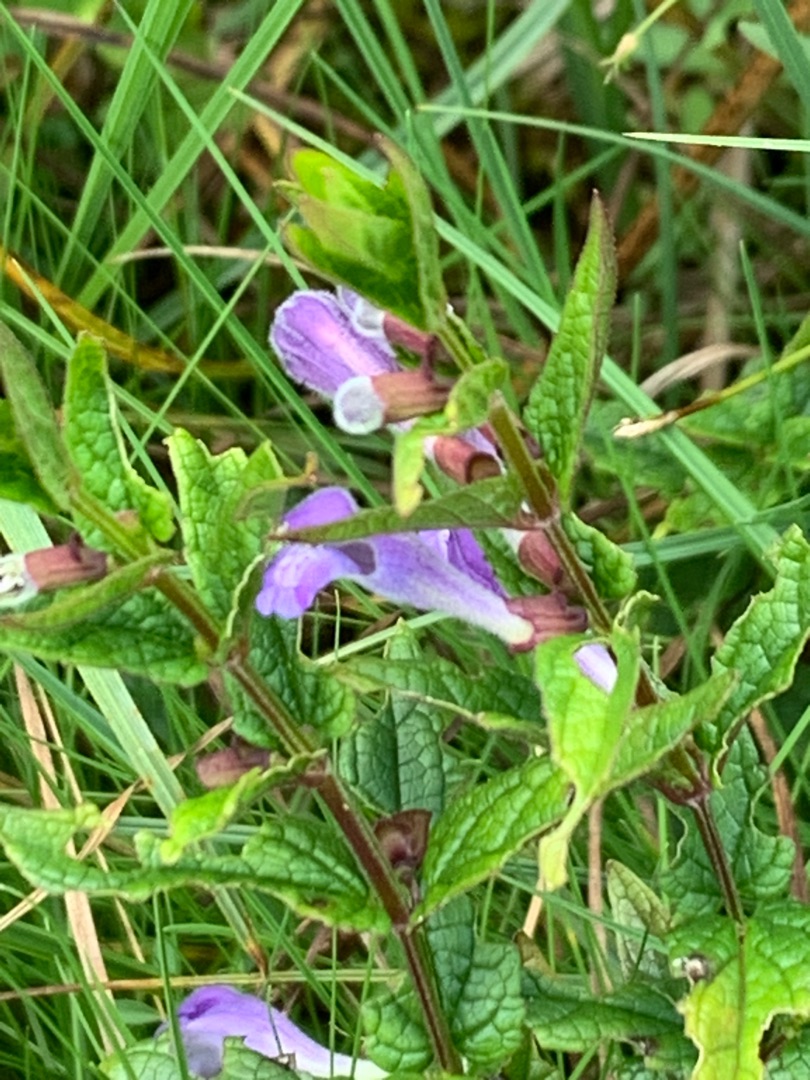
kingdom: Plantae
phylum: Tracheophyta
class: Magnoliopsida
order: Lamiales
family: Lamiaceae
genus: Scutellaria
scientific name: Scutellaria galericulata
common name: Almindelig skjolddrager
